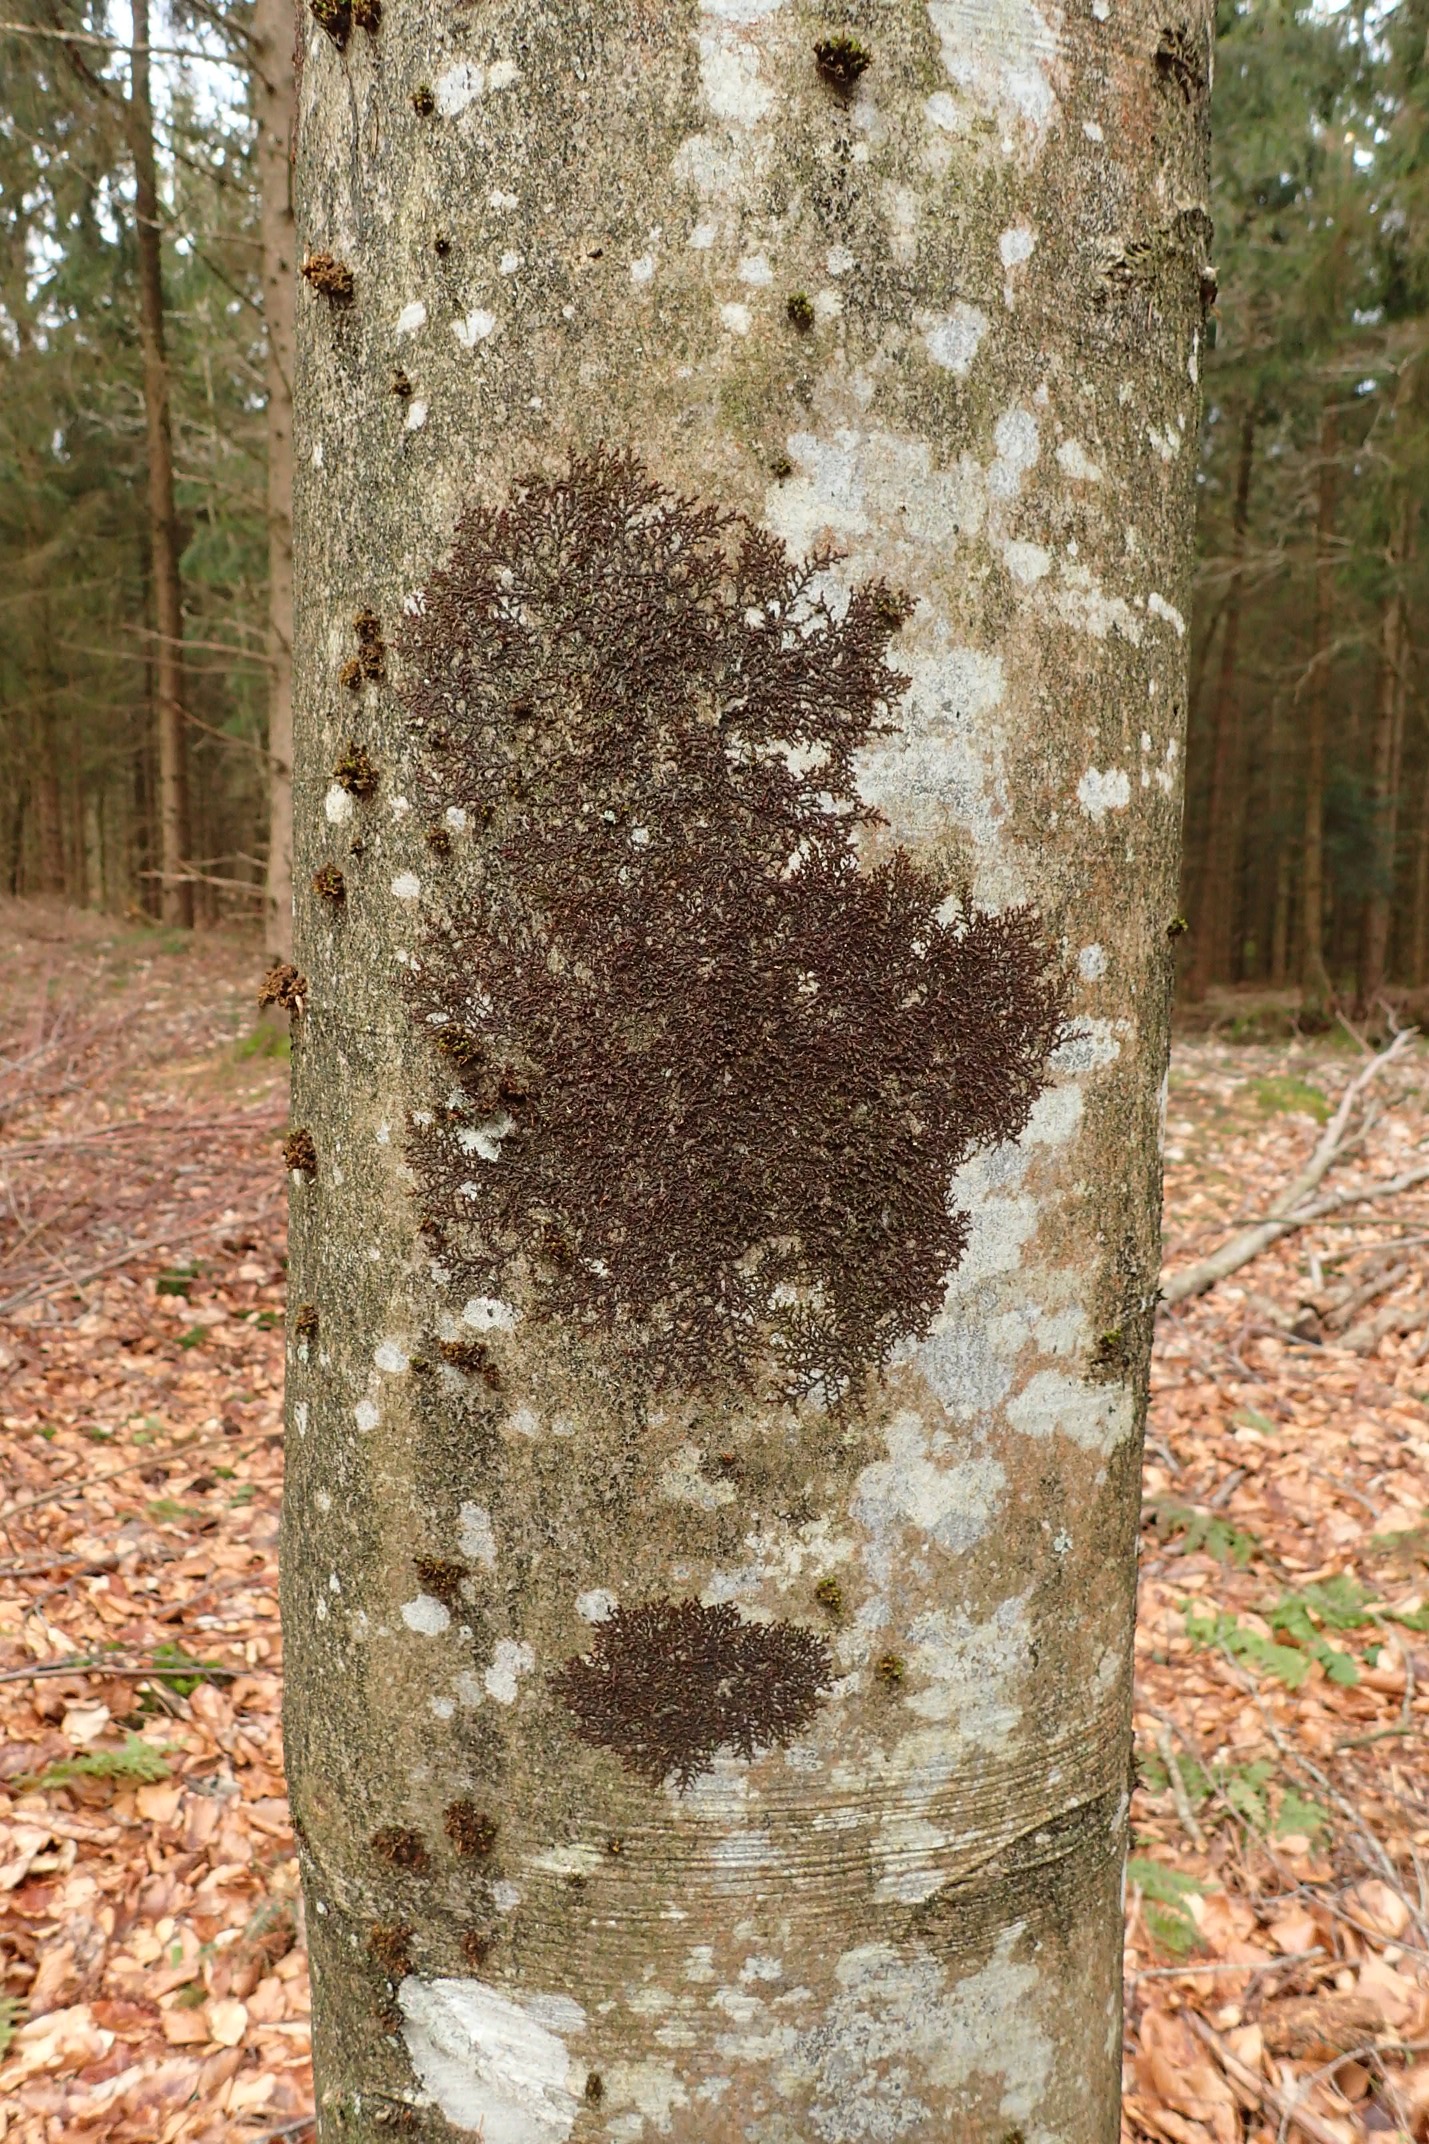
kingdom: Plantae
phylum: Marchantiophyta
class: Jungermanniopsida
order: Porellales
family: Frullaniaceae
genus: Frullania
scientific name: Frullania dilatata
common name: Mat bronzemos
